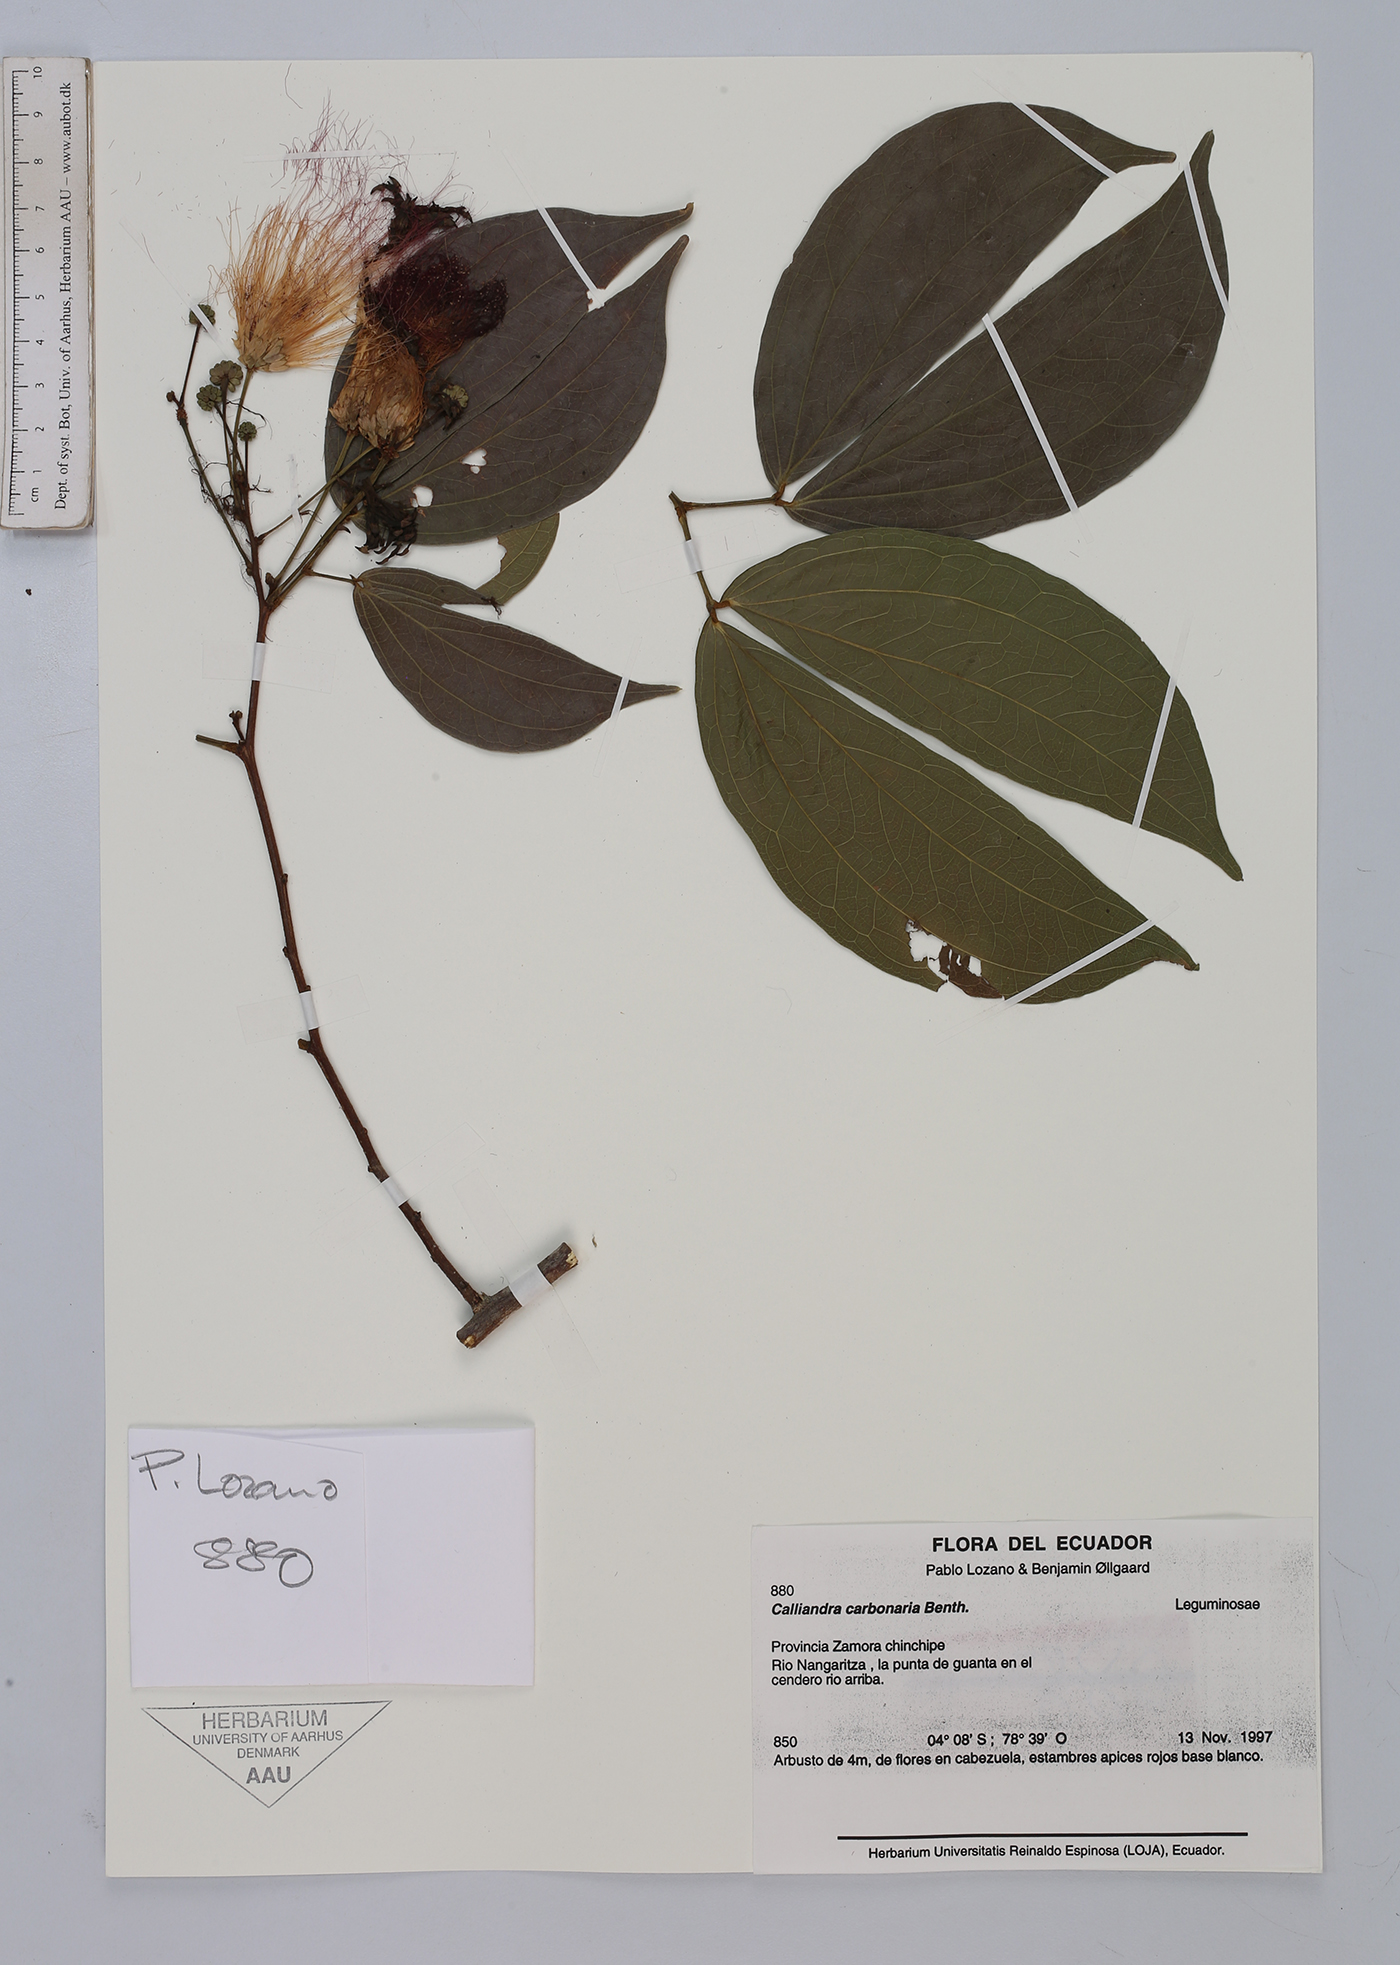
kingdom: Plantae
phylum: Tracheophyta
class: Magnoliopsida
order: Fabales
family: Fabaceae
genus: Calliandra
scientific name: Calliandra trinervia
